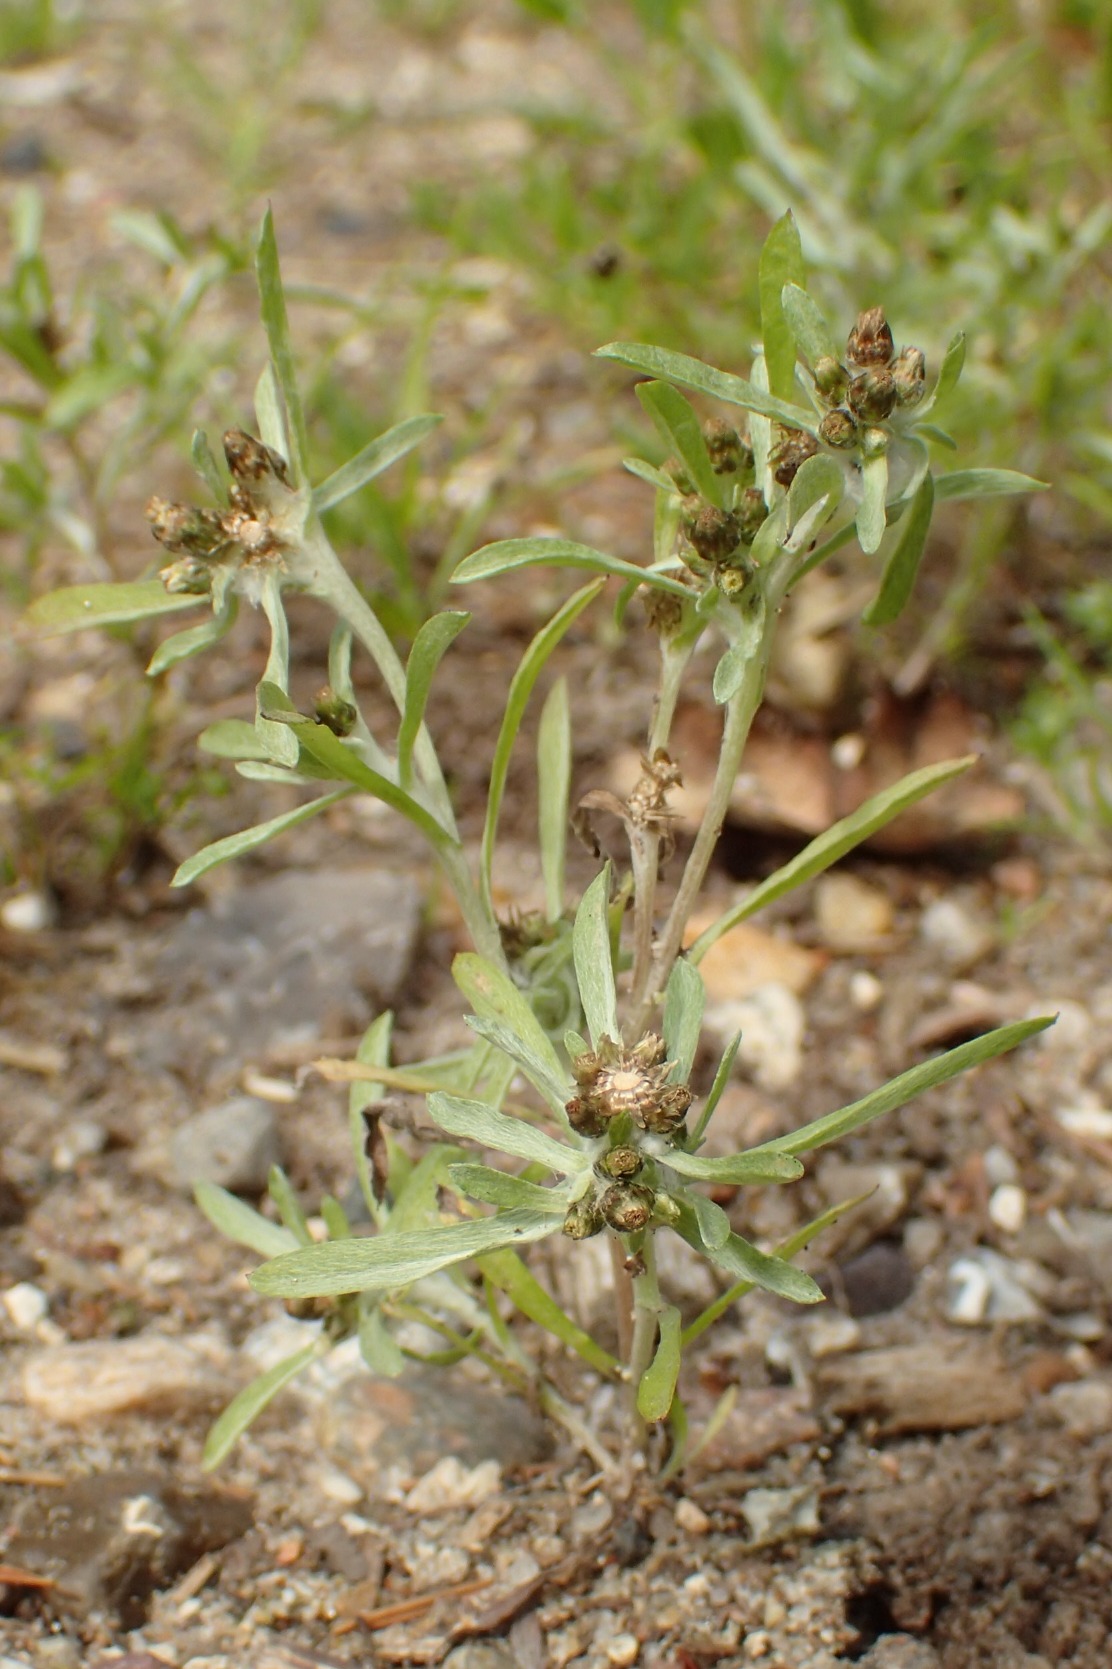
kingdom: Plantae
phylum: Tracheophyta
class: Magnoliopsida
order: Asterales
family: Asteraceae
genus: Gnaphalium
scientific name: Gnaphalium uliginosum
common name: Sump-evighedsblomst
